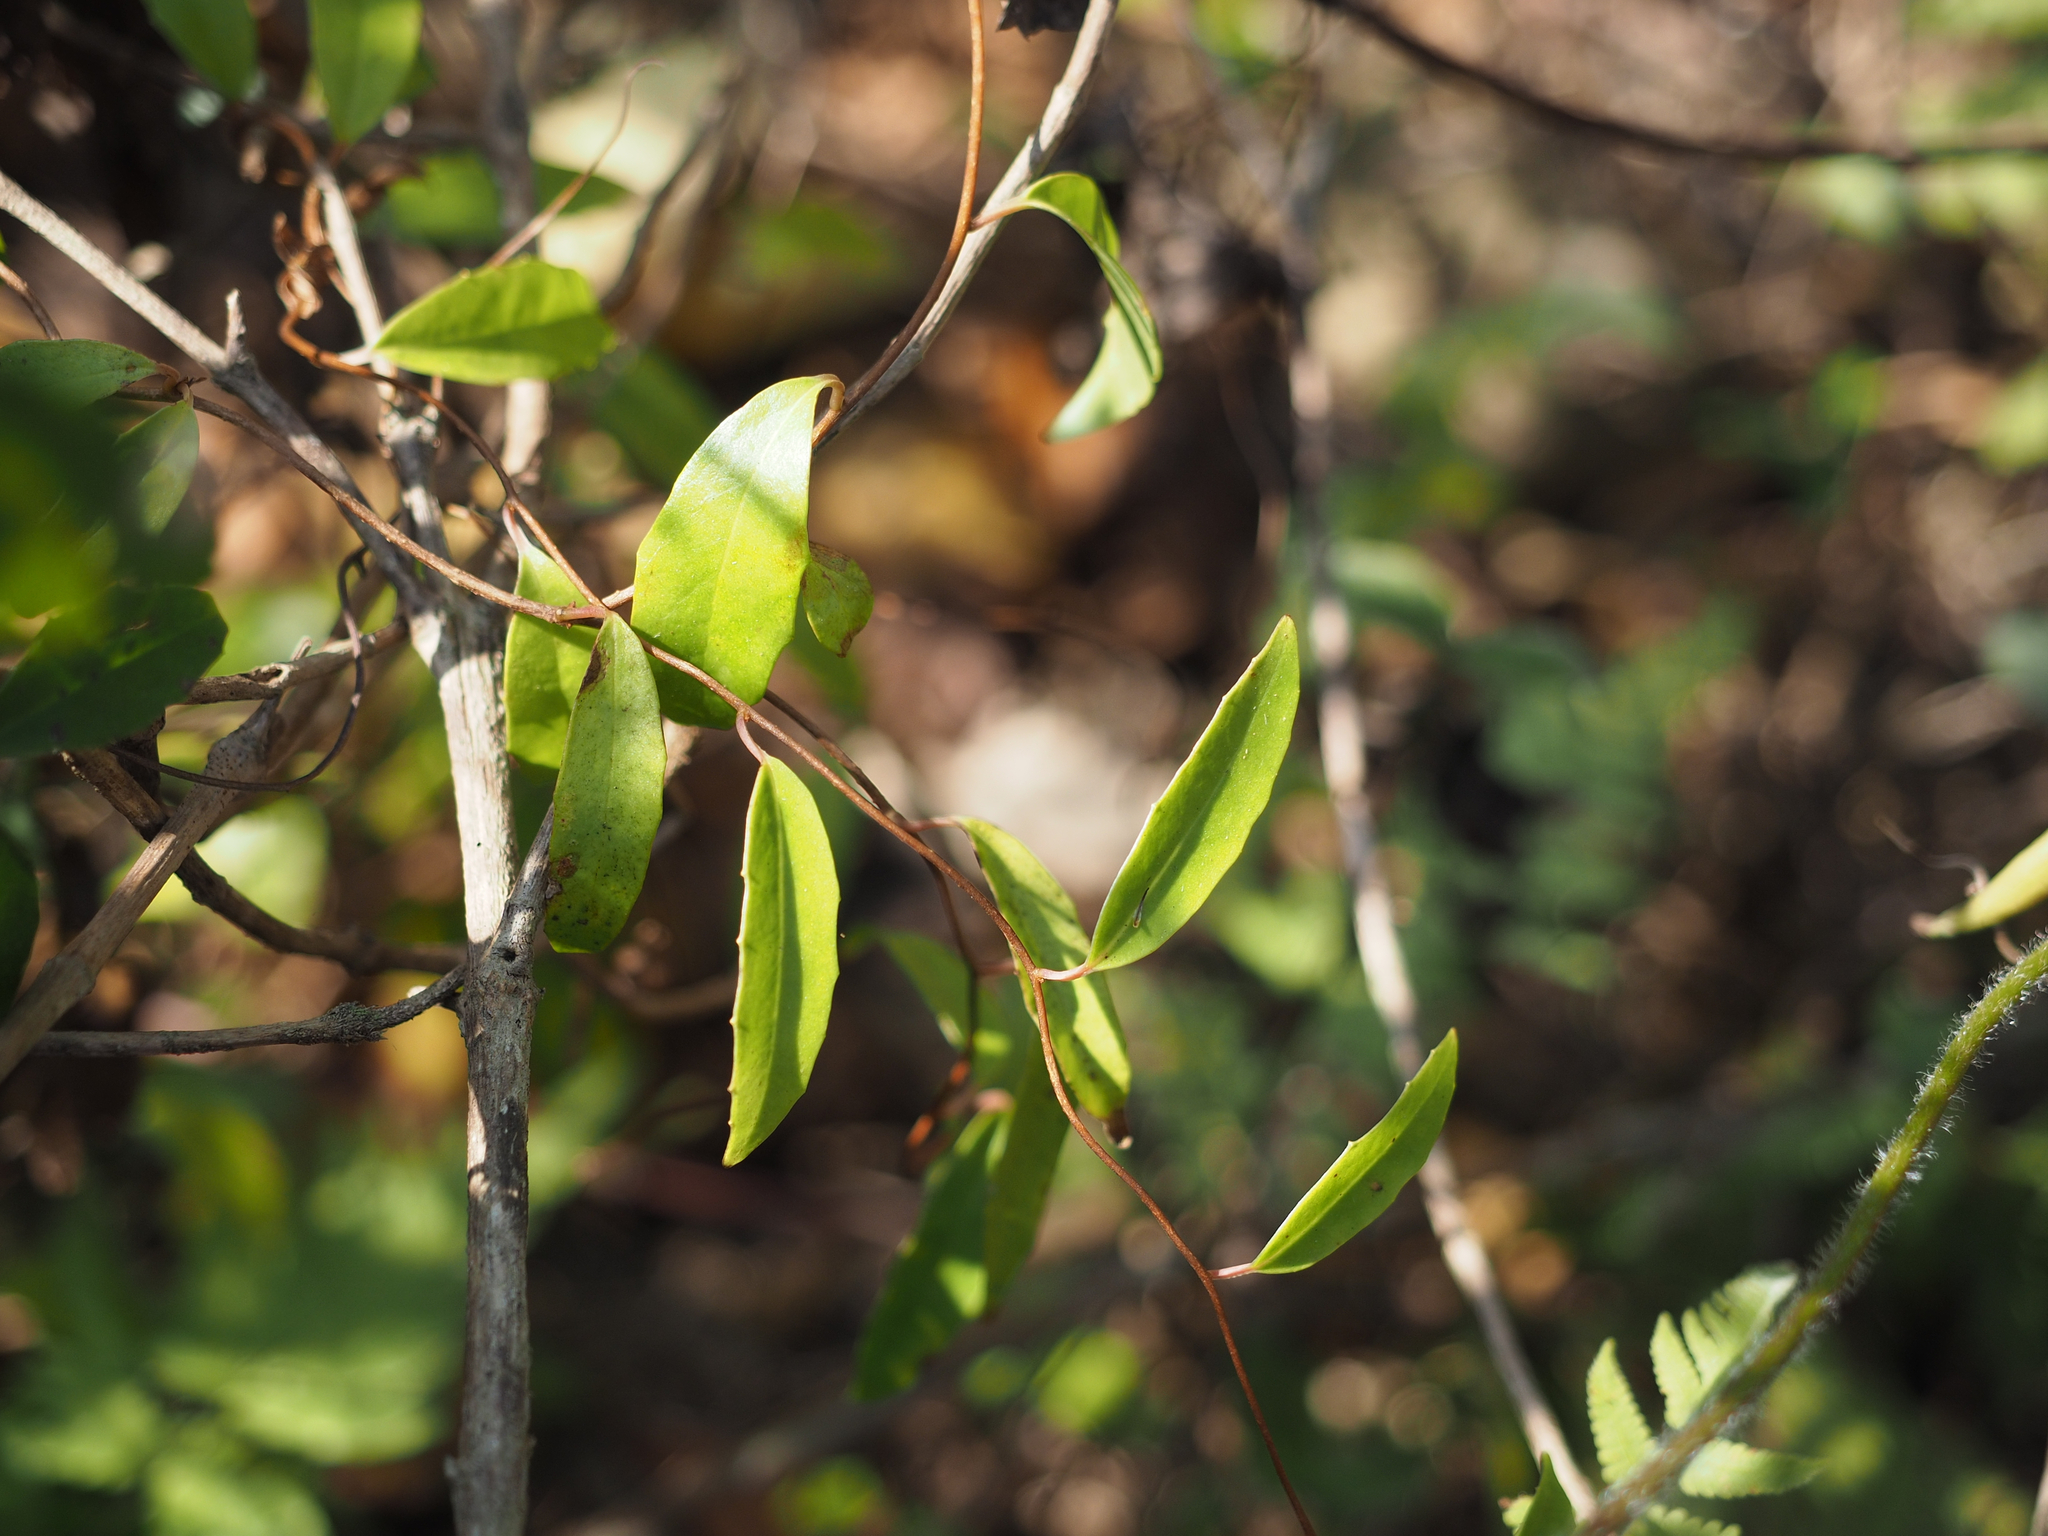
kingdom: Plantae
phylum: Tracheophyta
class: Magnoliopsida
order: Austrobaileyales
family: Schisandraceae
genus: Kadsura
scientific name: Kadsura japonica
